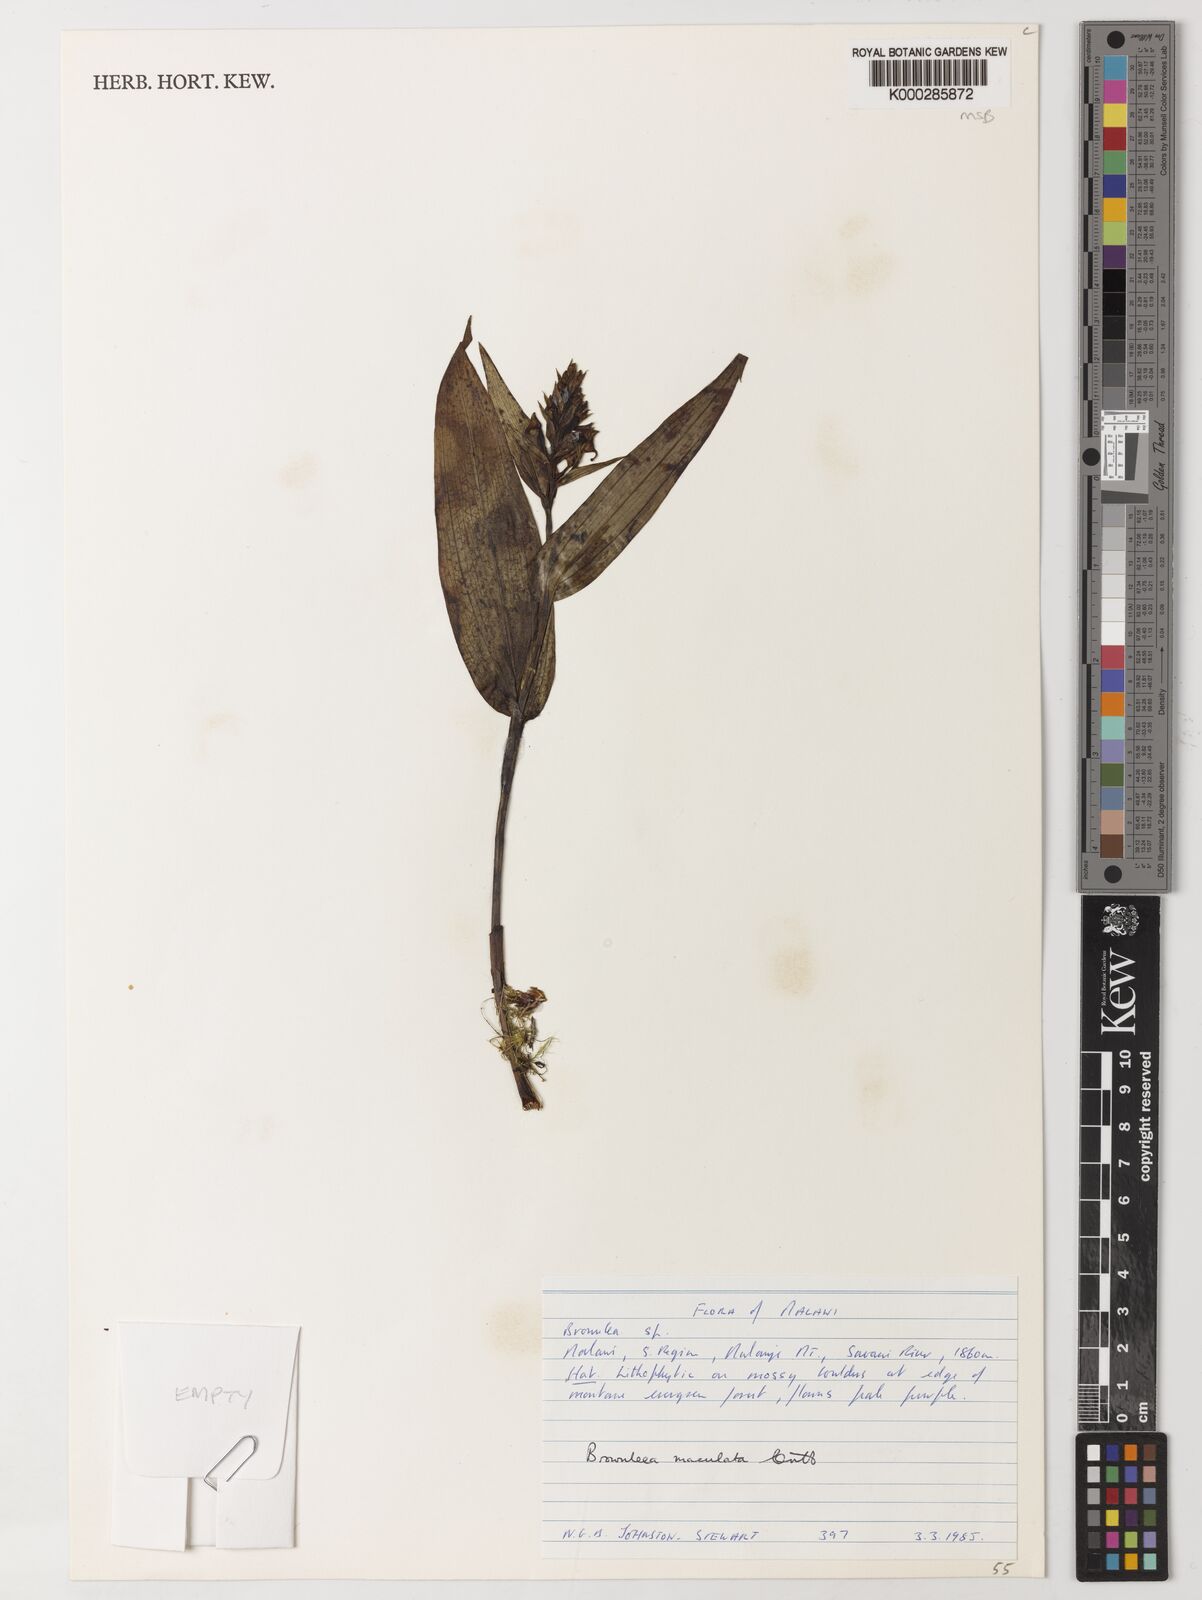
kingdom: Plantae
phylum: Tracheophyta
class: Liliopsida
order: Asparagales
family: Orchidaceae
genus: Brownleea
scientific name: Brownleea maculata
